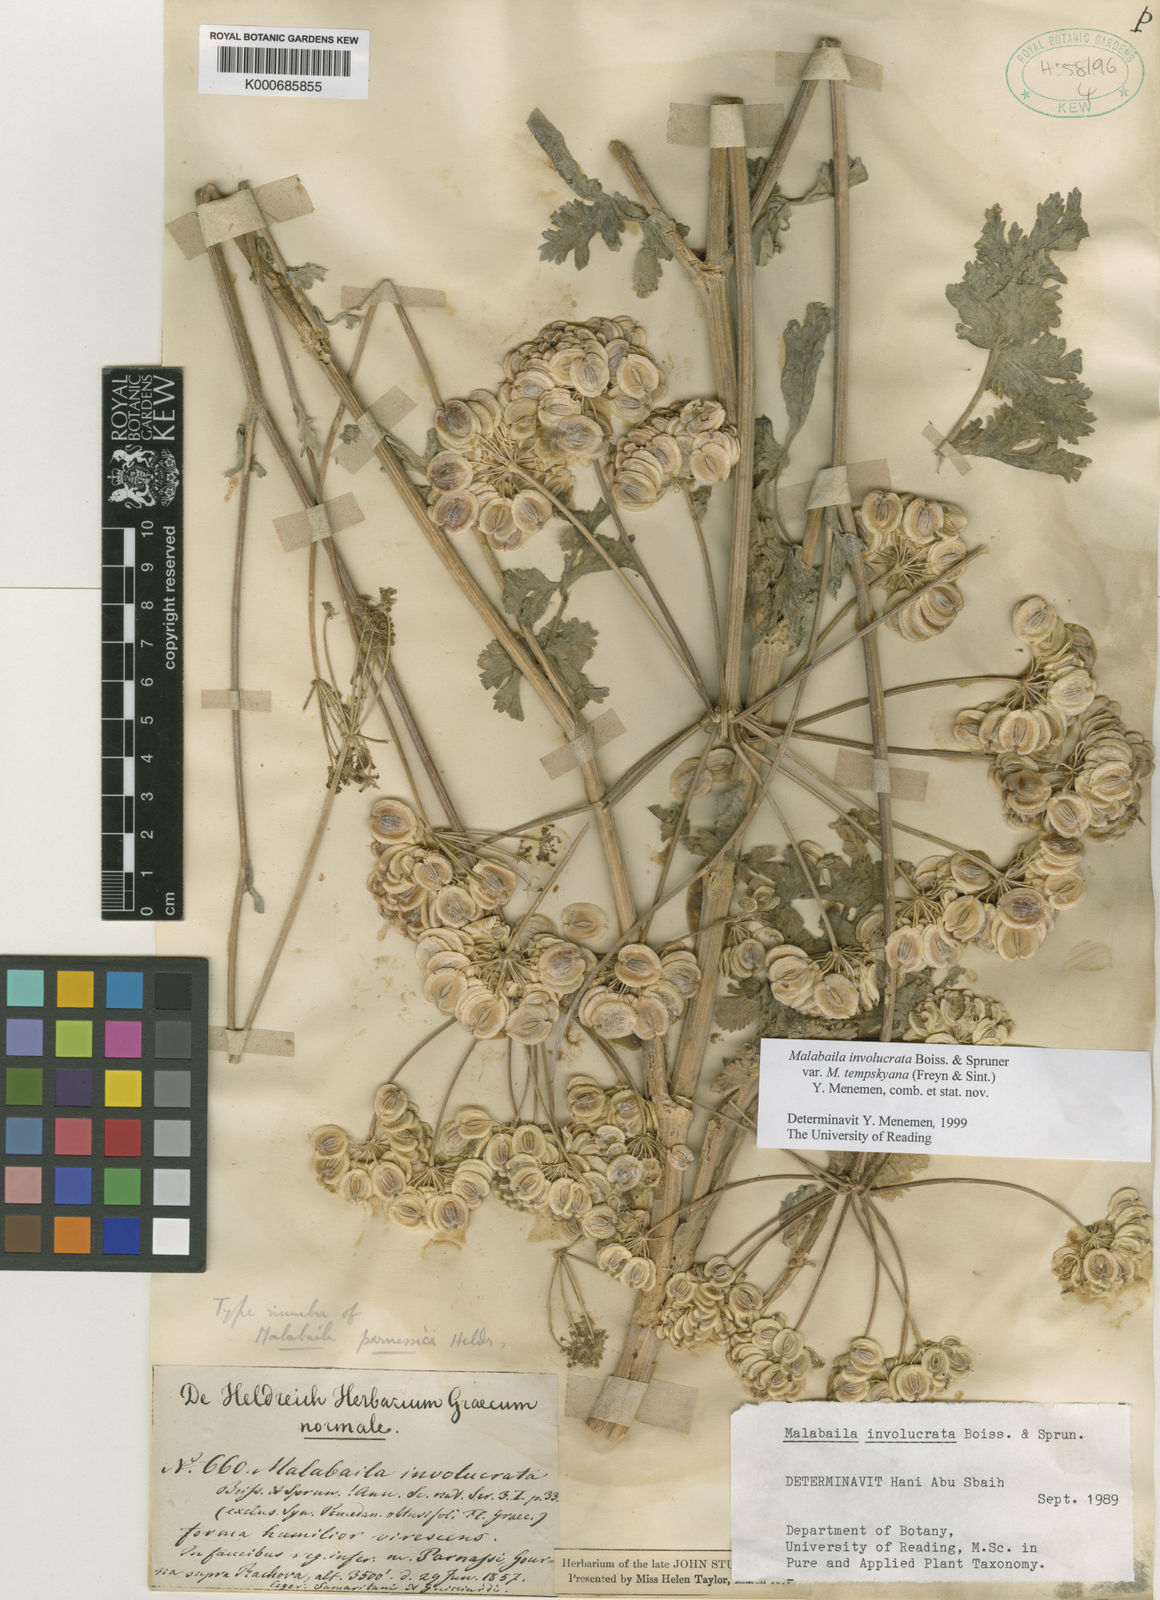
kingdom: Plantae
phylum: Tracheophyta
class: Magnoliopsida
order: Apiales
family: Apiaceae
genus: Pastinaca
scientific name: Pastinaca
